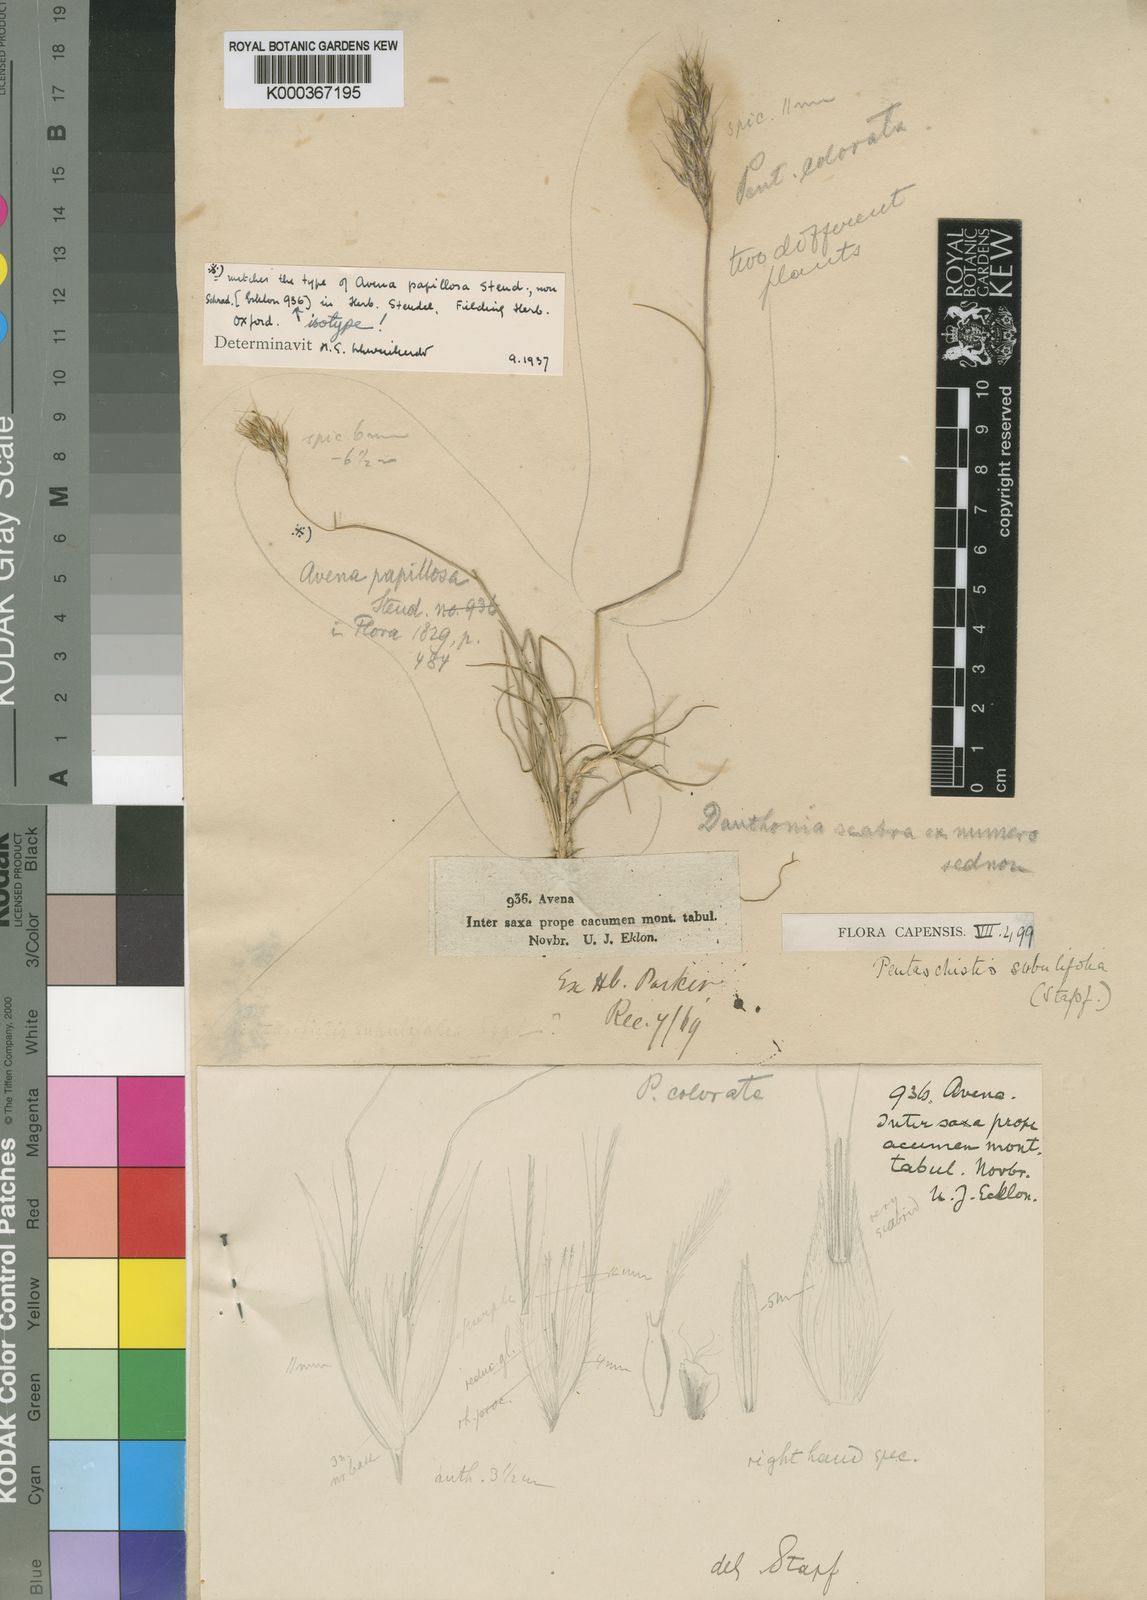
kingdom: Plantae
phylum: Tracheophyta
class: Liliopsida
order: Poales
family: Poaceae
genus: Pentameris
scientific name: Pentameris scabra
